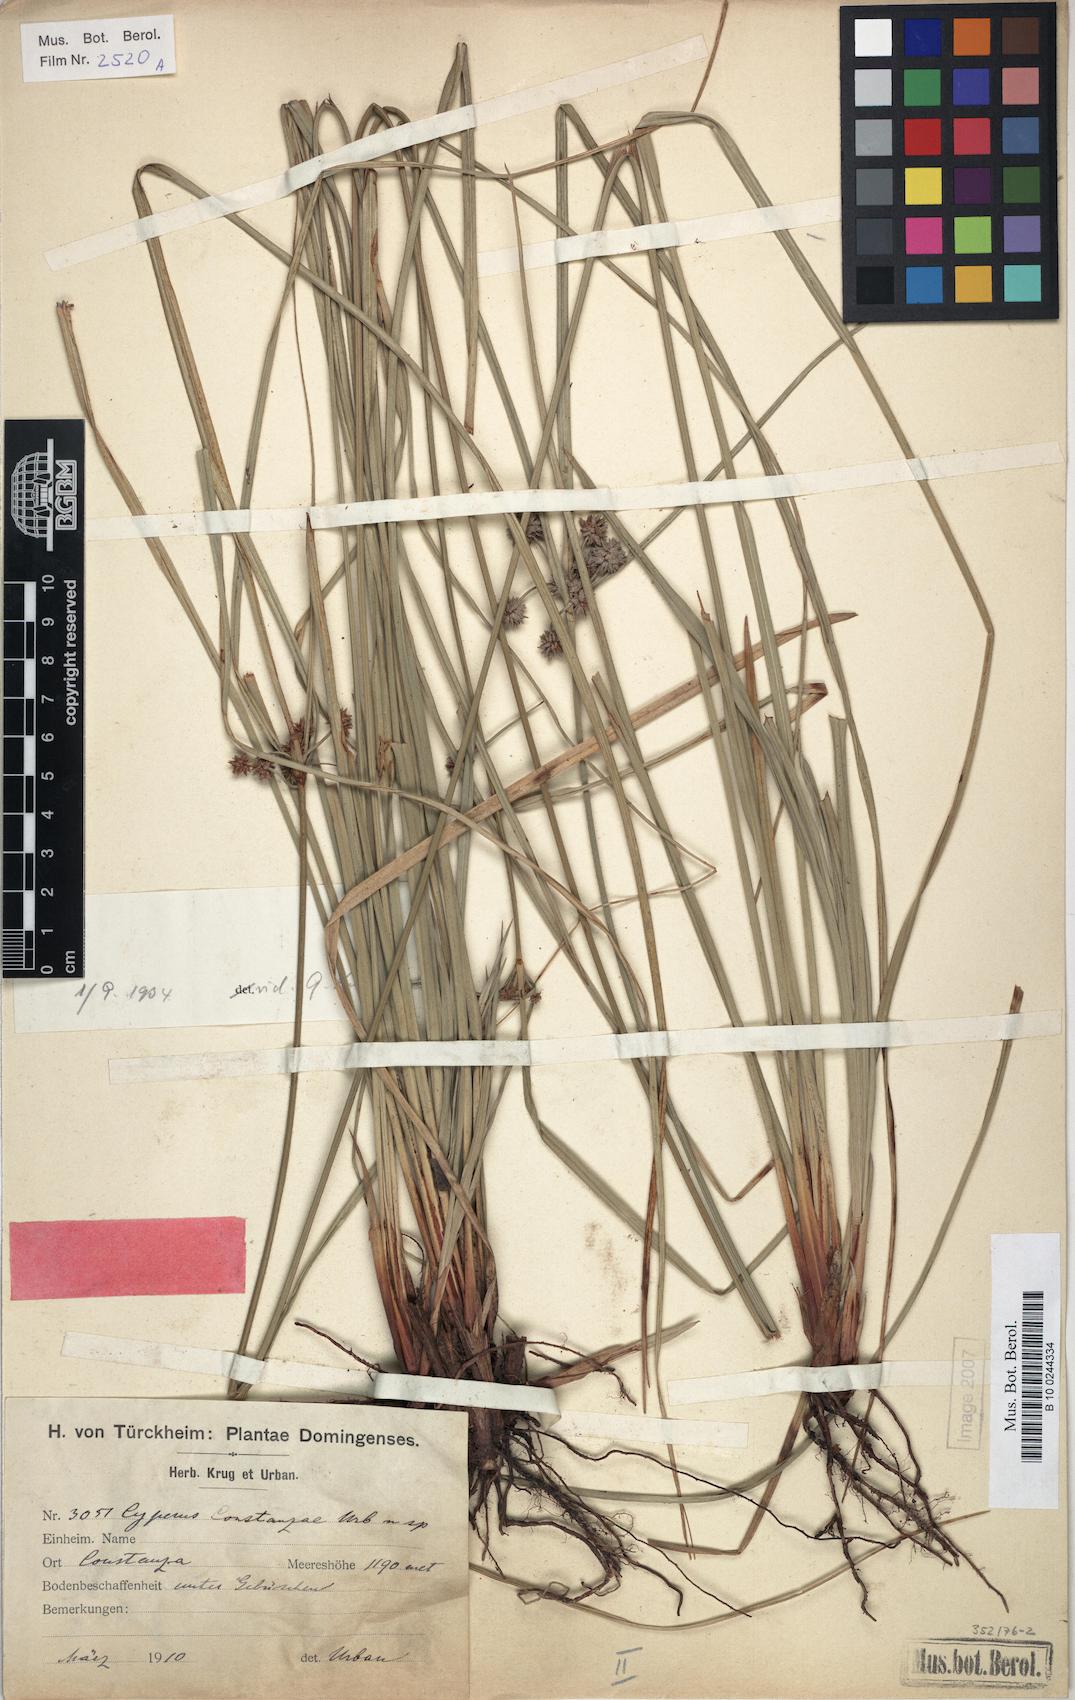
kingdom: Plantae
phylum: Tracheophyta
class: Liliopsida
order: Poales
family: Cyperaceae
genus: Cyperus
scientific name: Cyperus constanzae
